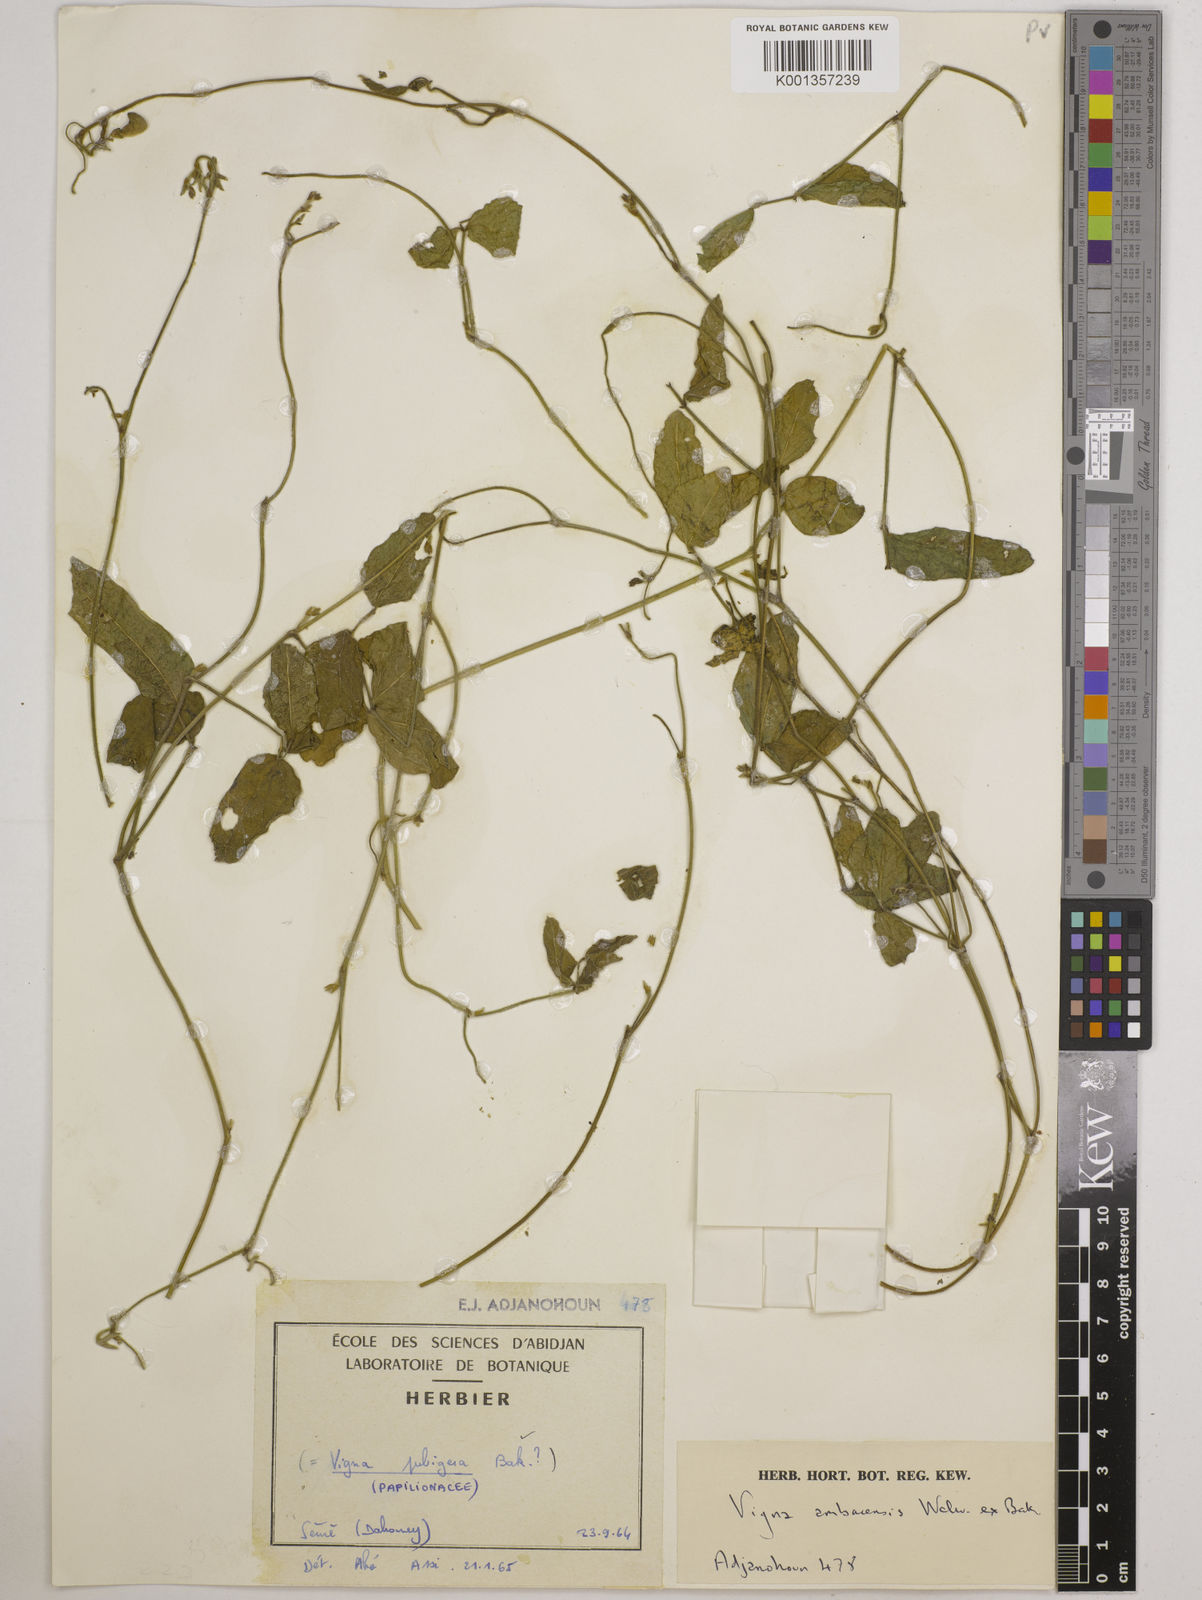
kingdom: Plantae
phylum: Tracheophyta
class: Magnoliopsida
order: Fabales
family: Fabaceae
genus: Vigna
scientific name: Vigna ambacensis
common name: Tsarkiyan zomo
